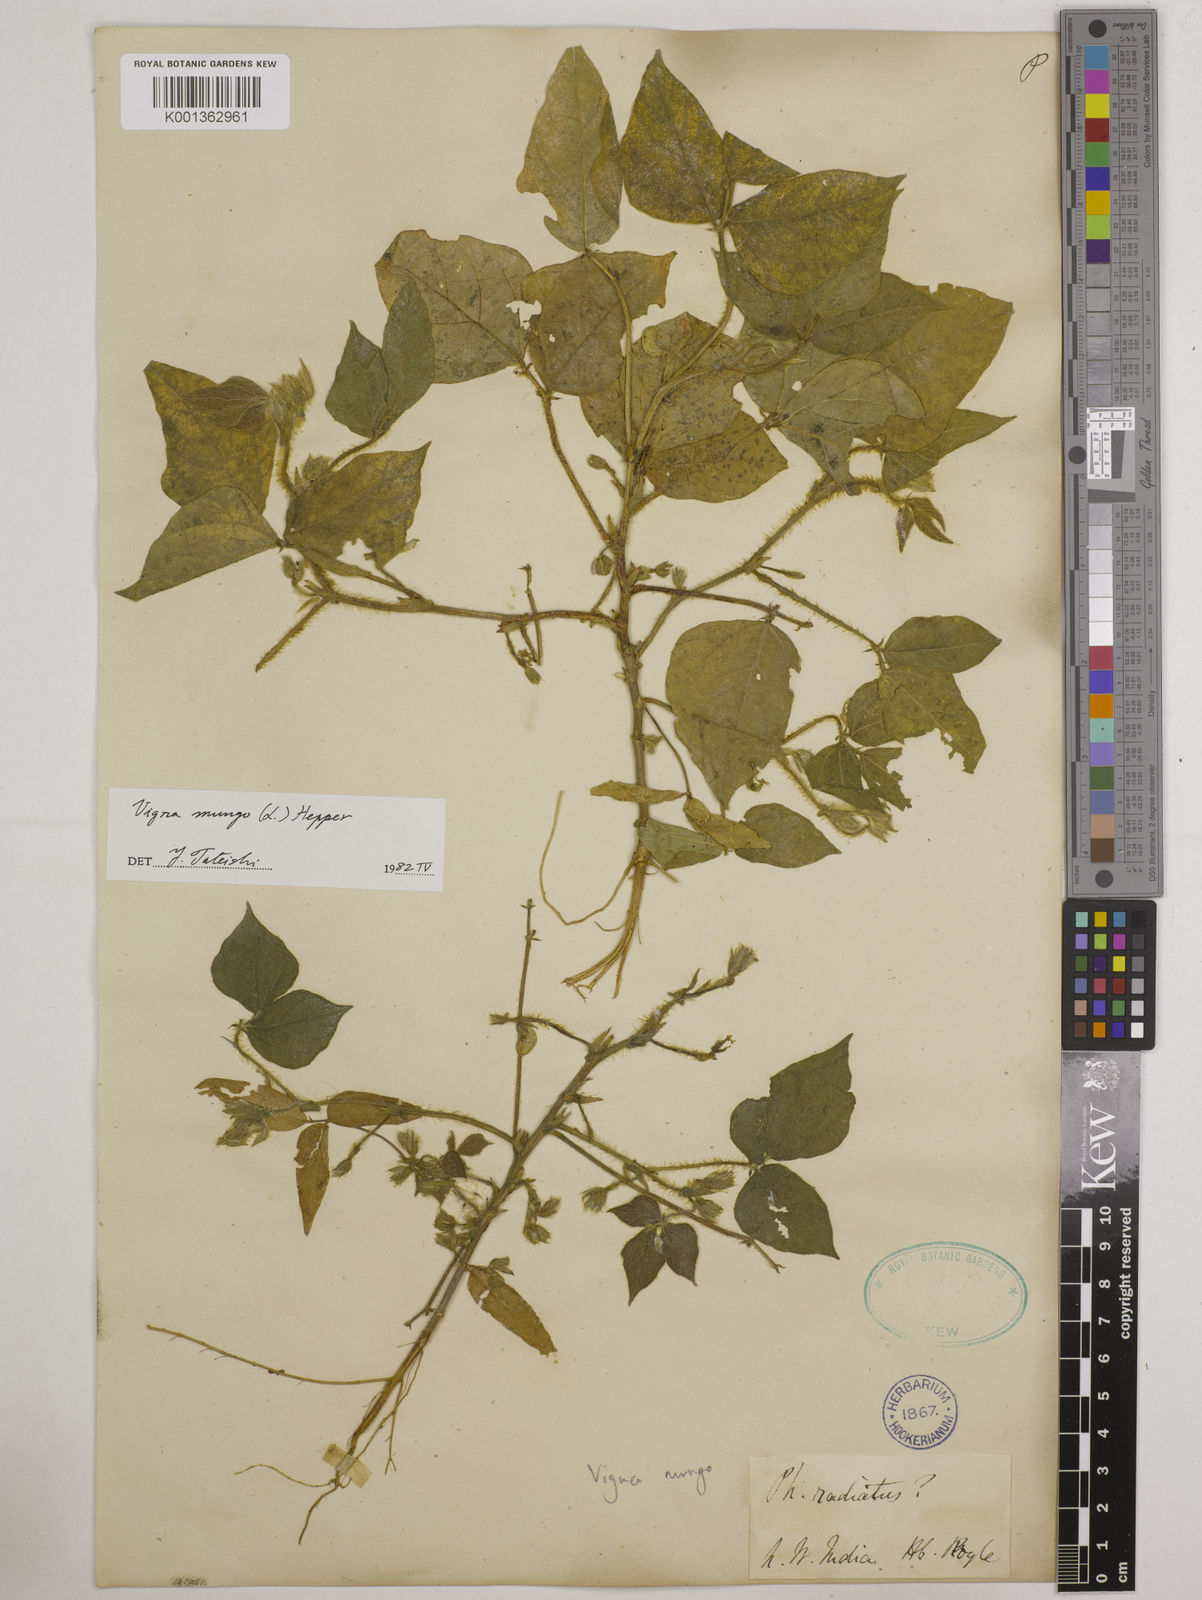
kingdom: Plantae
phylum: Tracheophyta
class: Magnoliopsida
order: Fabales
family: Fabaceae
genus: Vigna
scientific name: Vigna mungo
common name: Black gram
